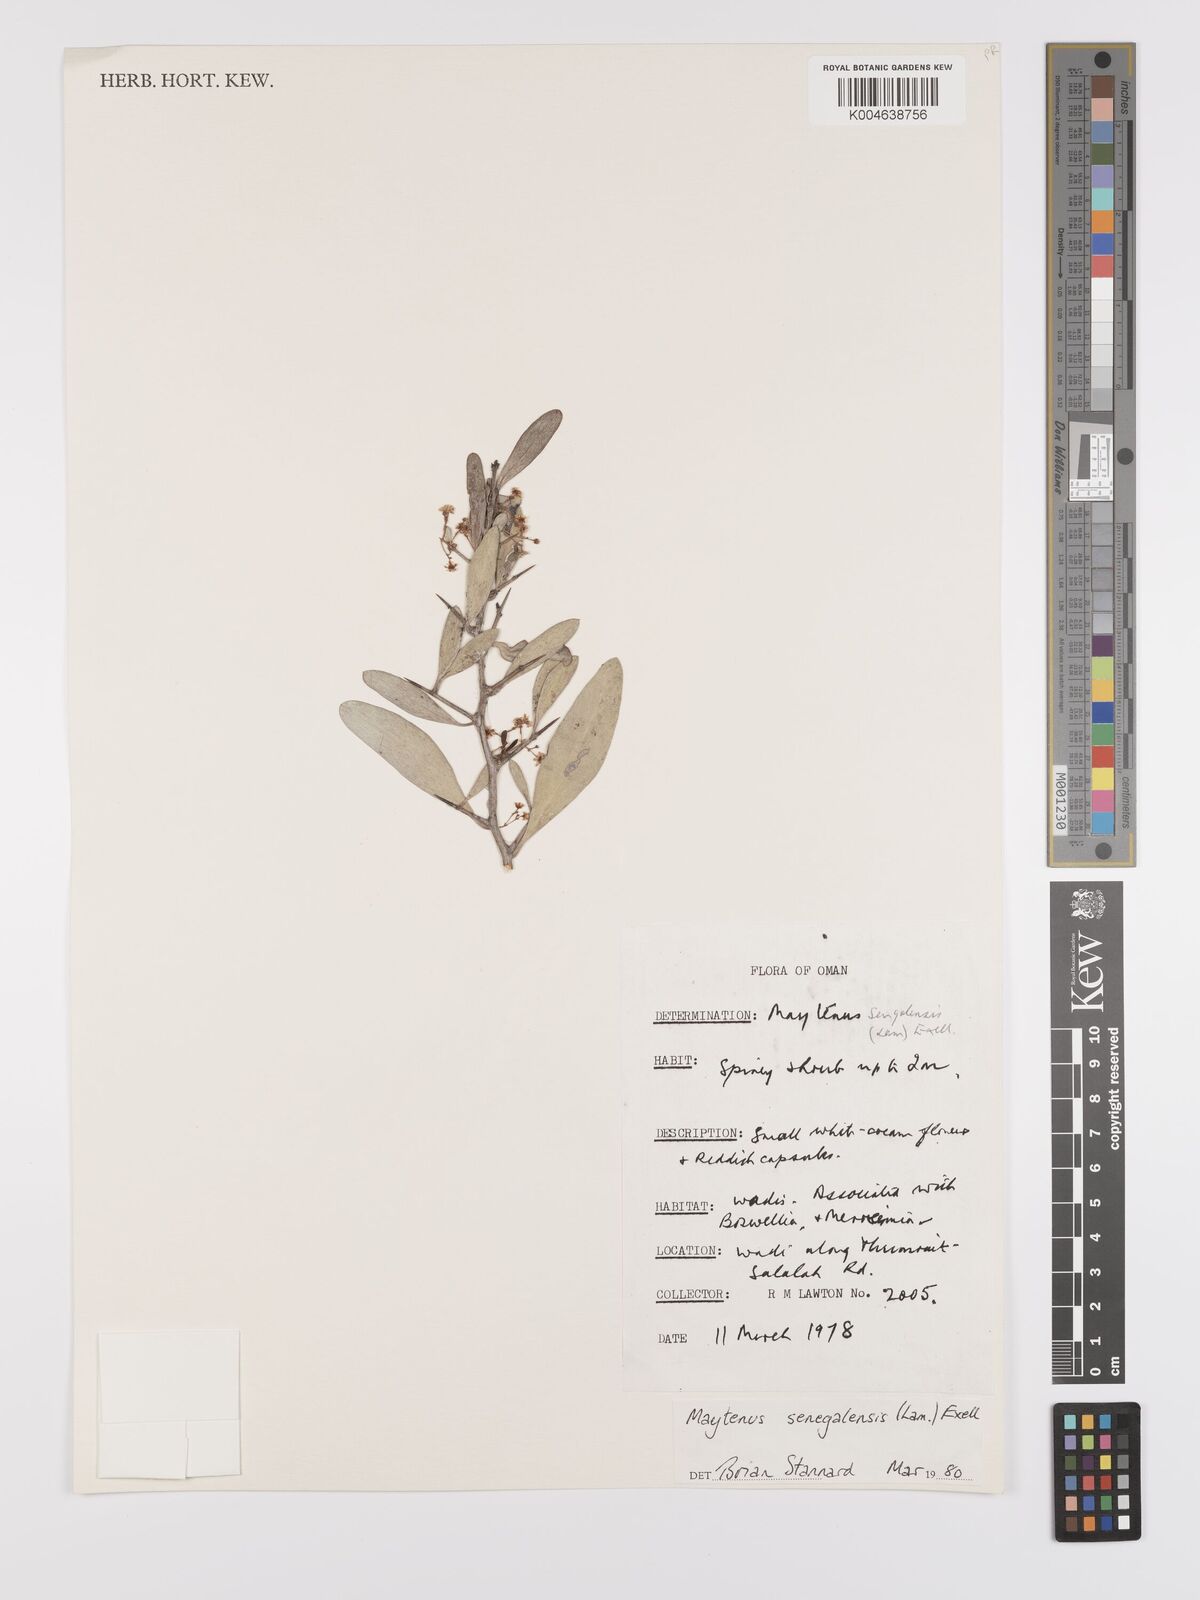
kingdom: Plantae
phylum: Tracheophyta
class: Magnoliopsida
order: Celastrales
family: Celastraceae
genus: Gymnosporia
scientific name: Gymnosporia senegalensis
